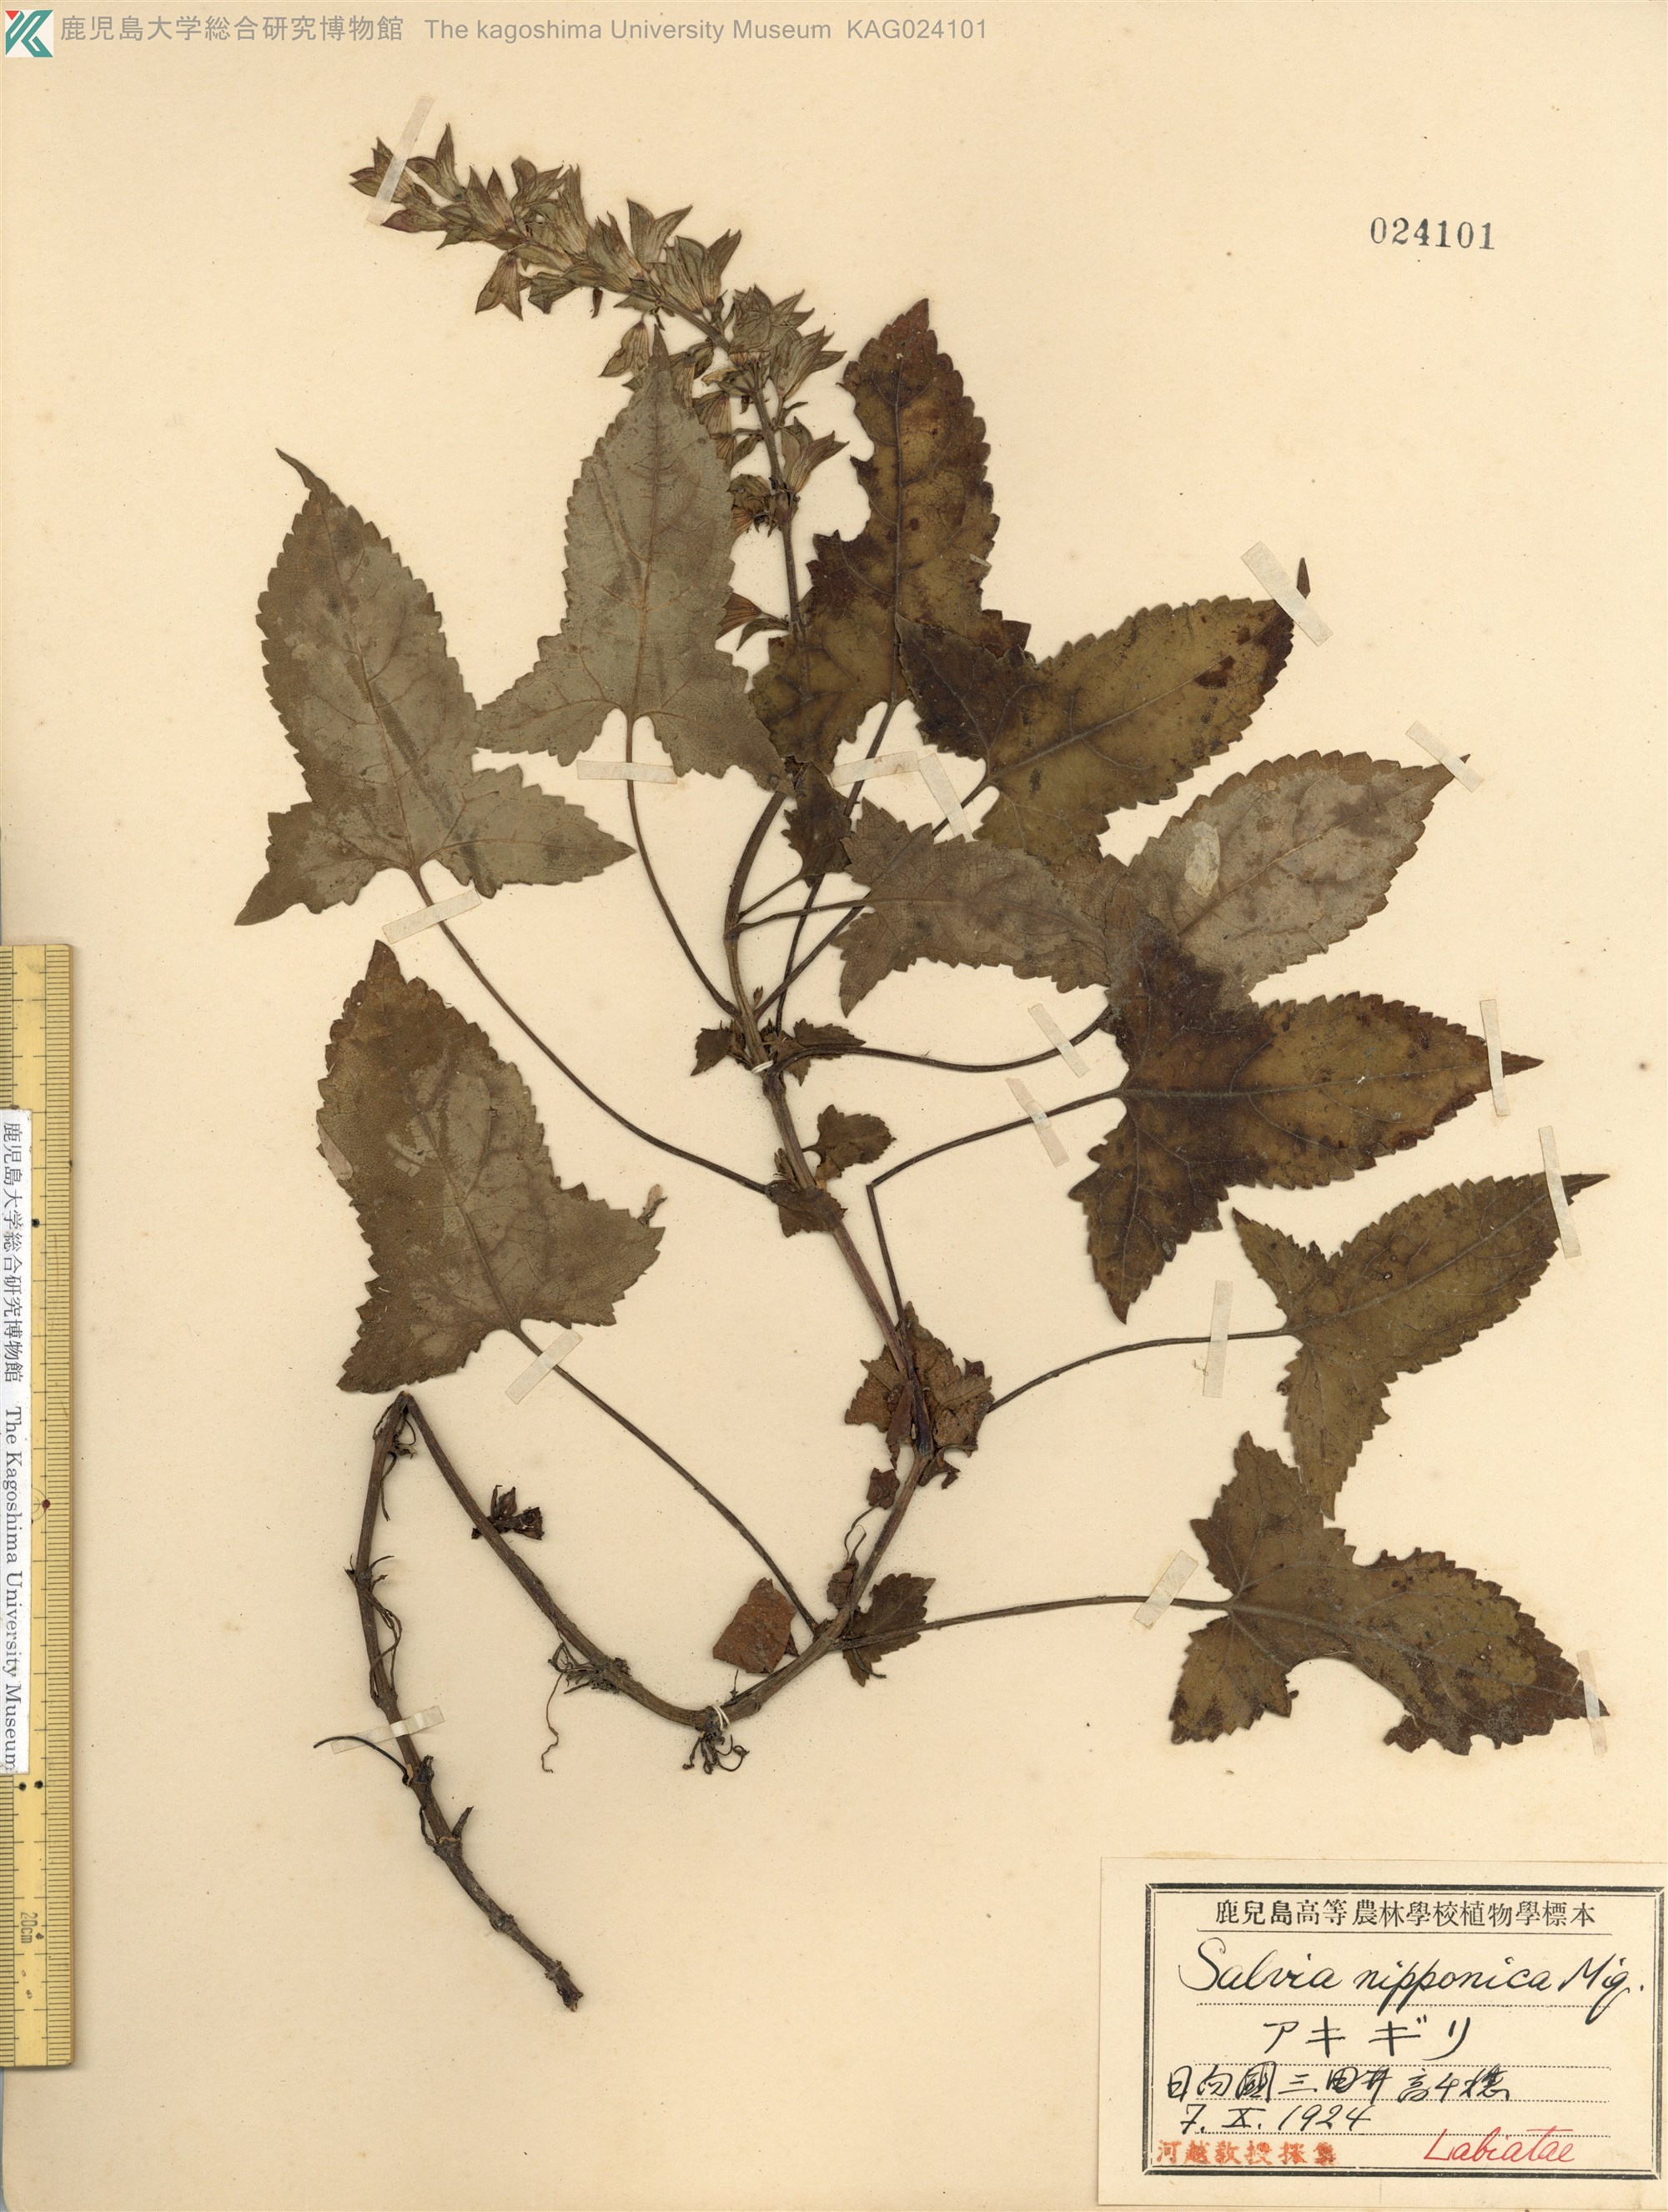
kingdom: Plantae
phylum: Tracheophyta
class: Magnoliopsida
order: Lamiales
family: Lamiaceae
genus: Salvia
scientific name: Salvia nipponica
